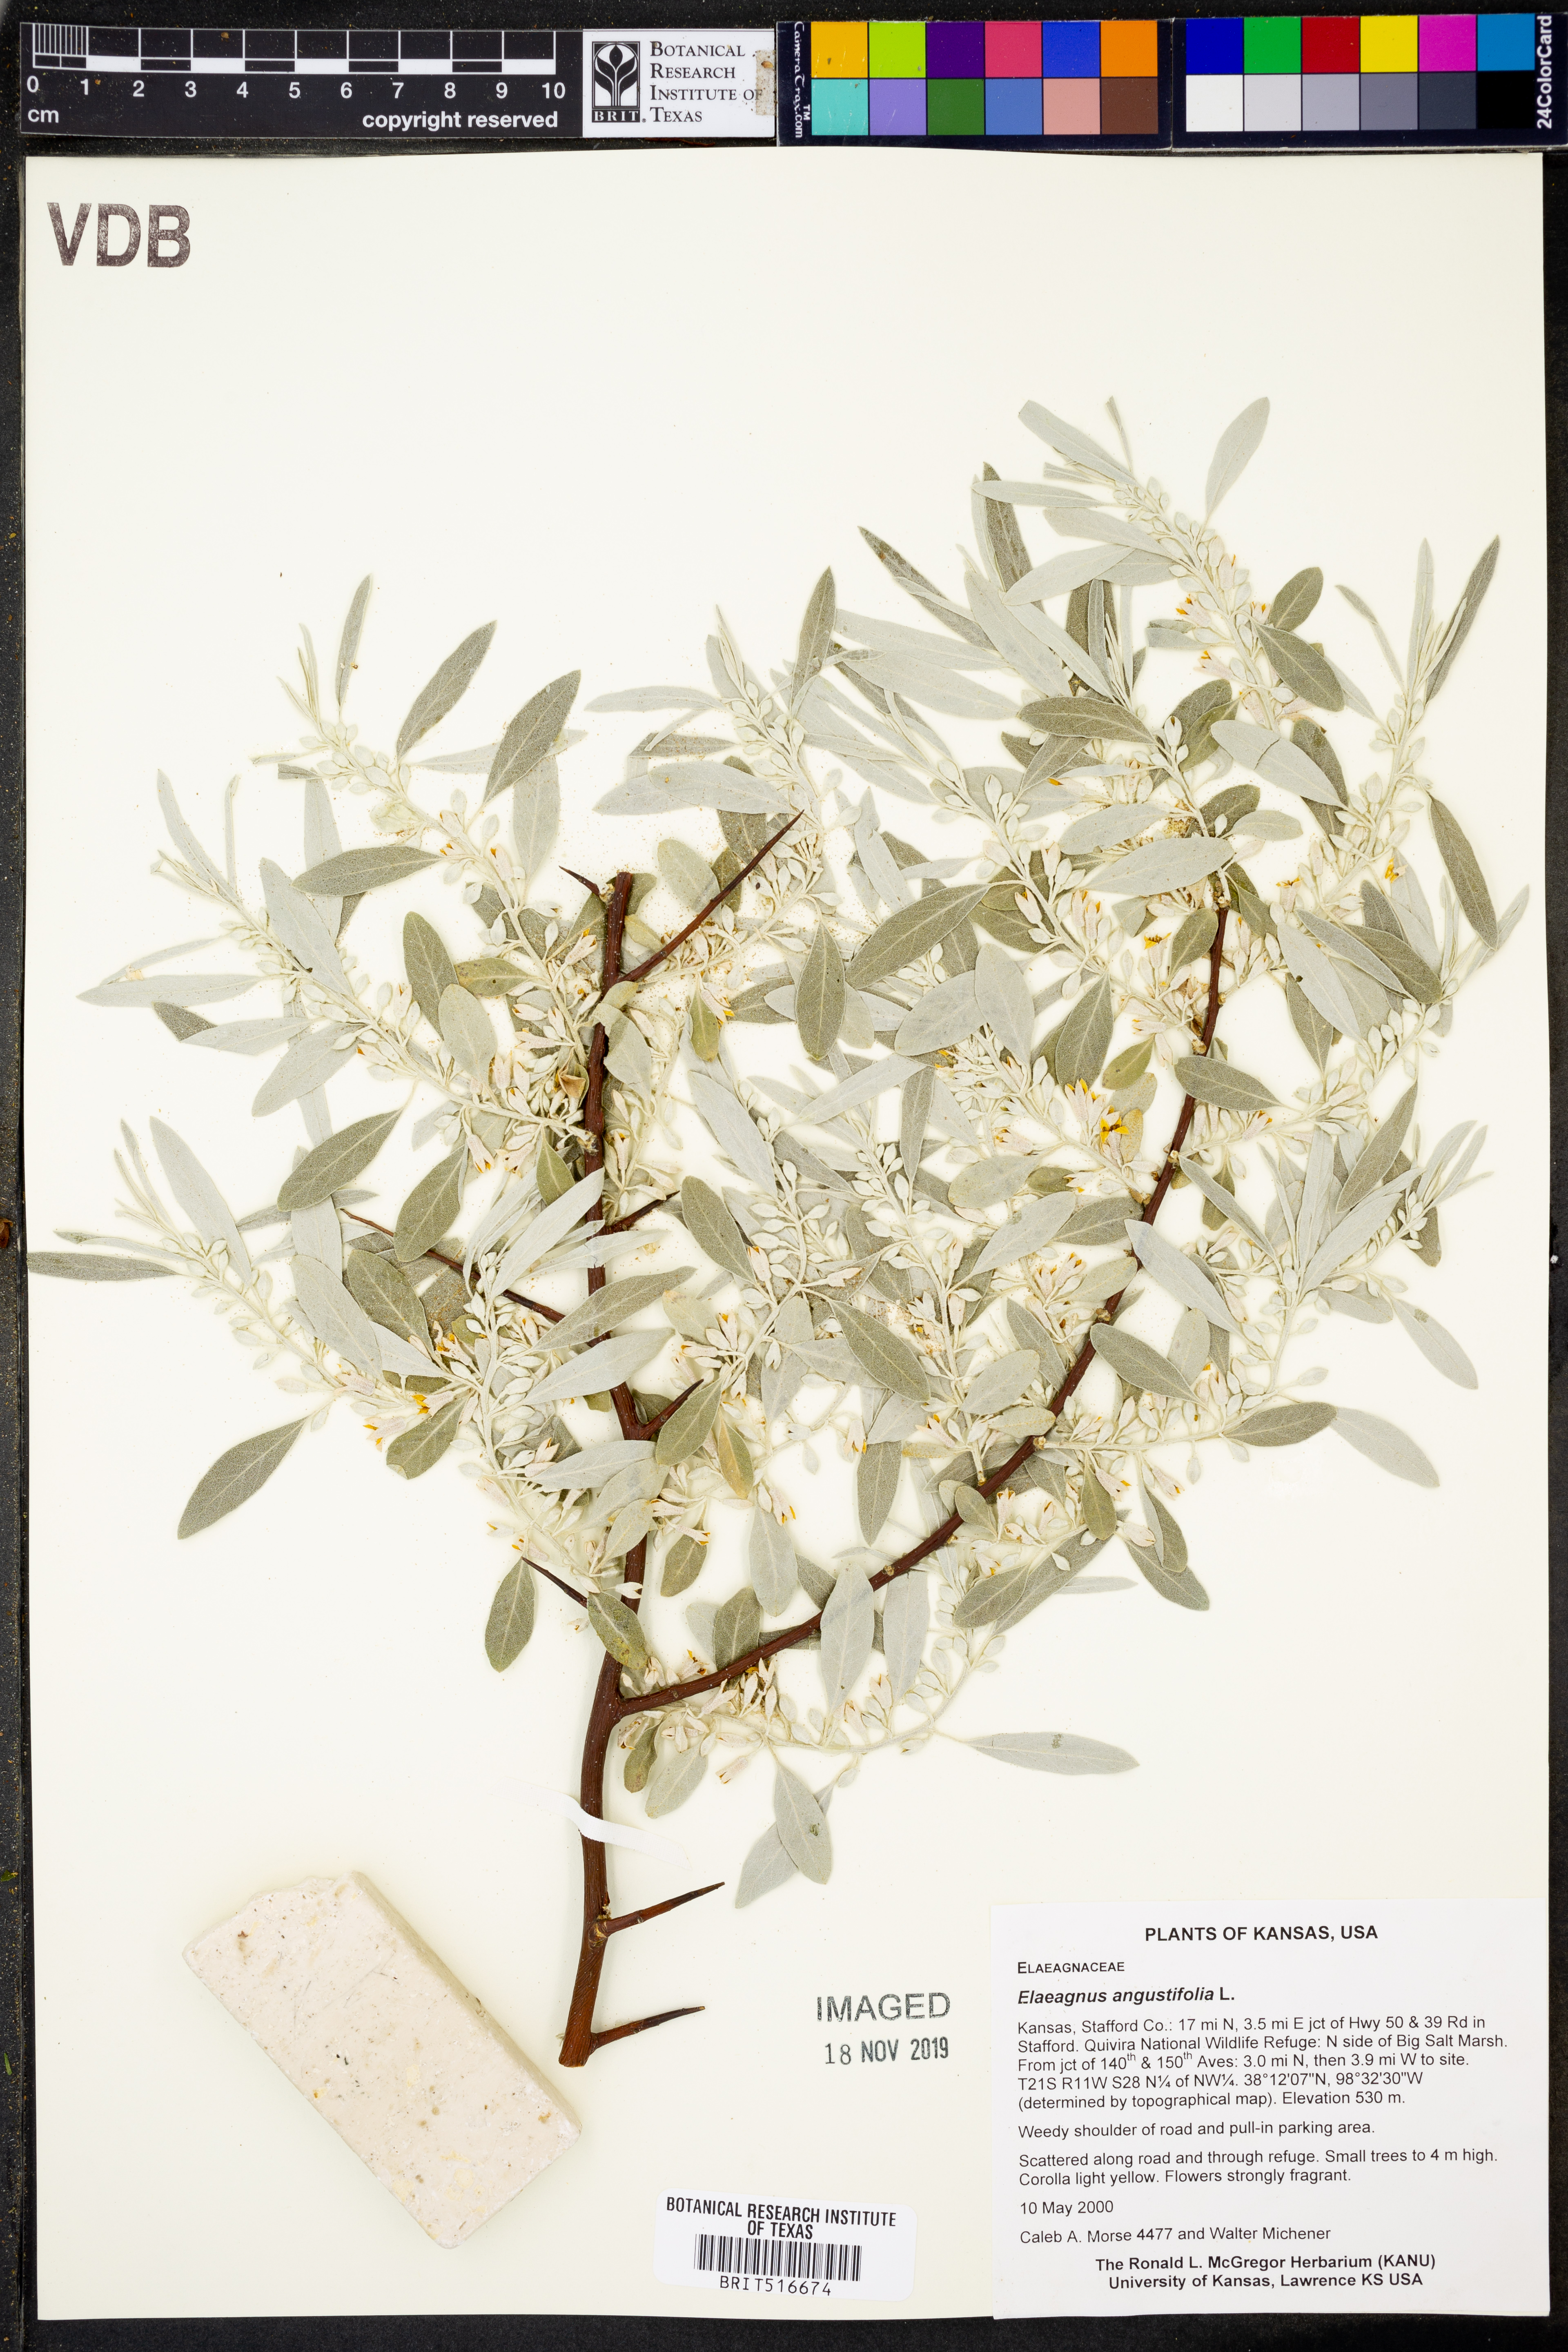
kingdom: Plantae
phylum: Tracheophyta
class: Magnoliopsida
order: Rosales
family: Elaeagnaceae
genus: Elaeagnus
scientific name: Elaeagnus angustifolia
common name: Russian olive
